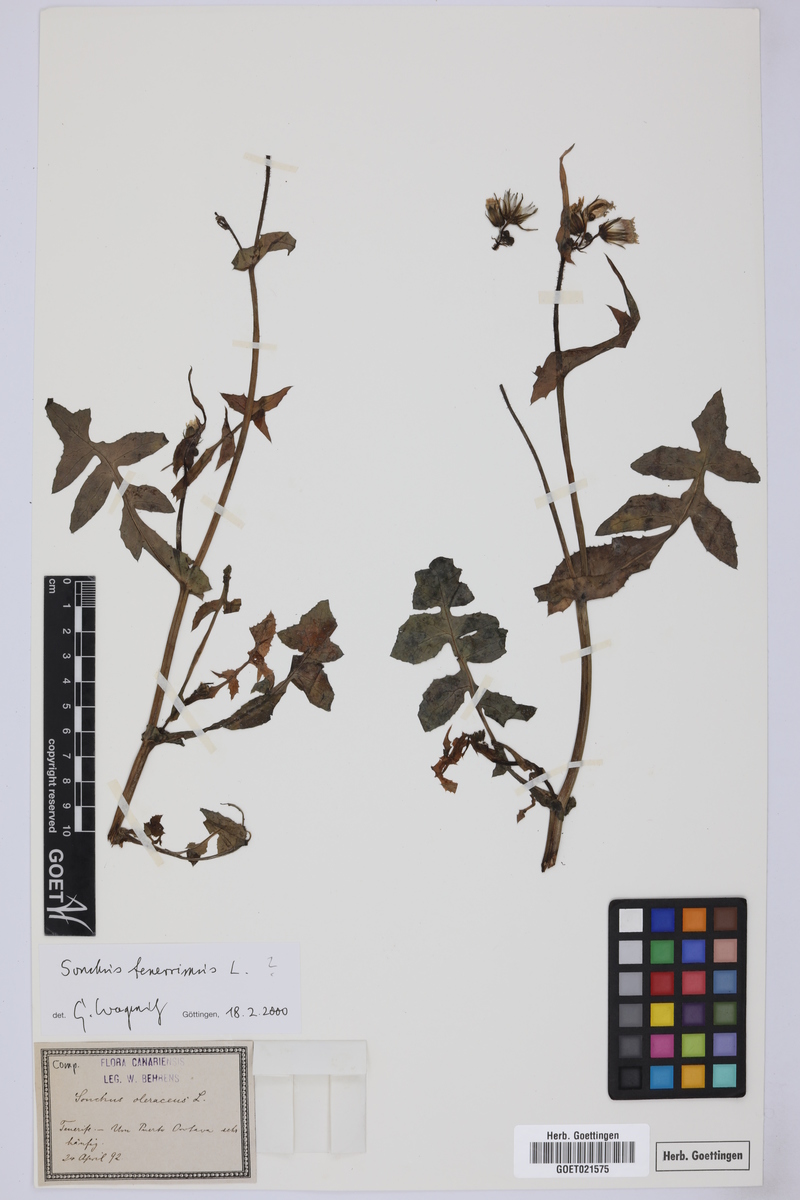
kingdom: Plantae
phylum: Tracheophyta
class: Magnoliopsida
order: Asterales
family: Asteraceae
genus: Sonchus
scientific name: Sonchus tenerrimus
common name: Clammy sowthistle
